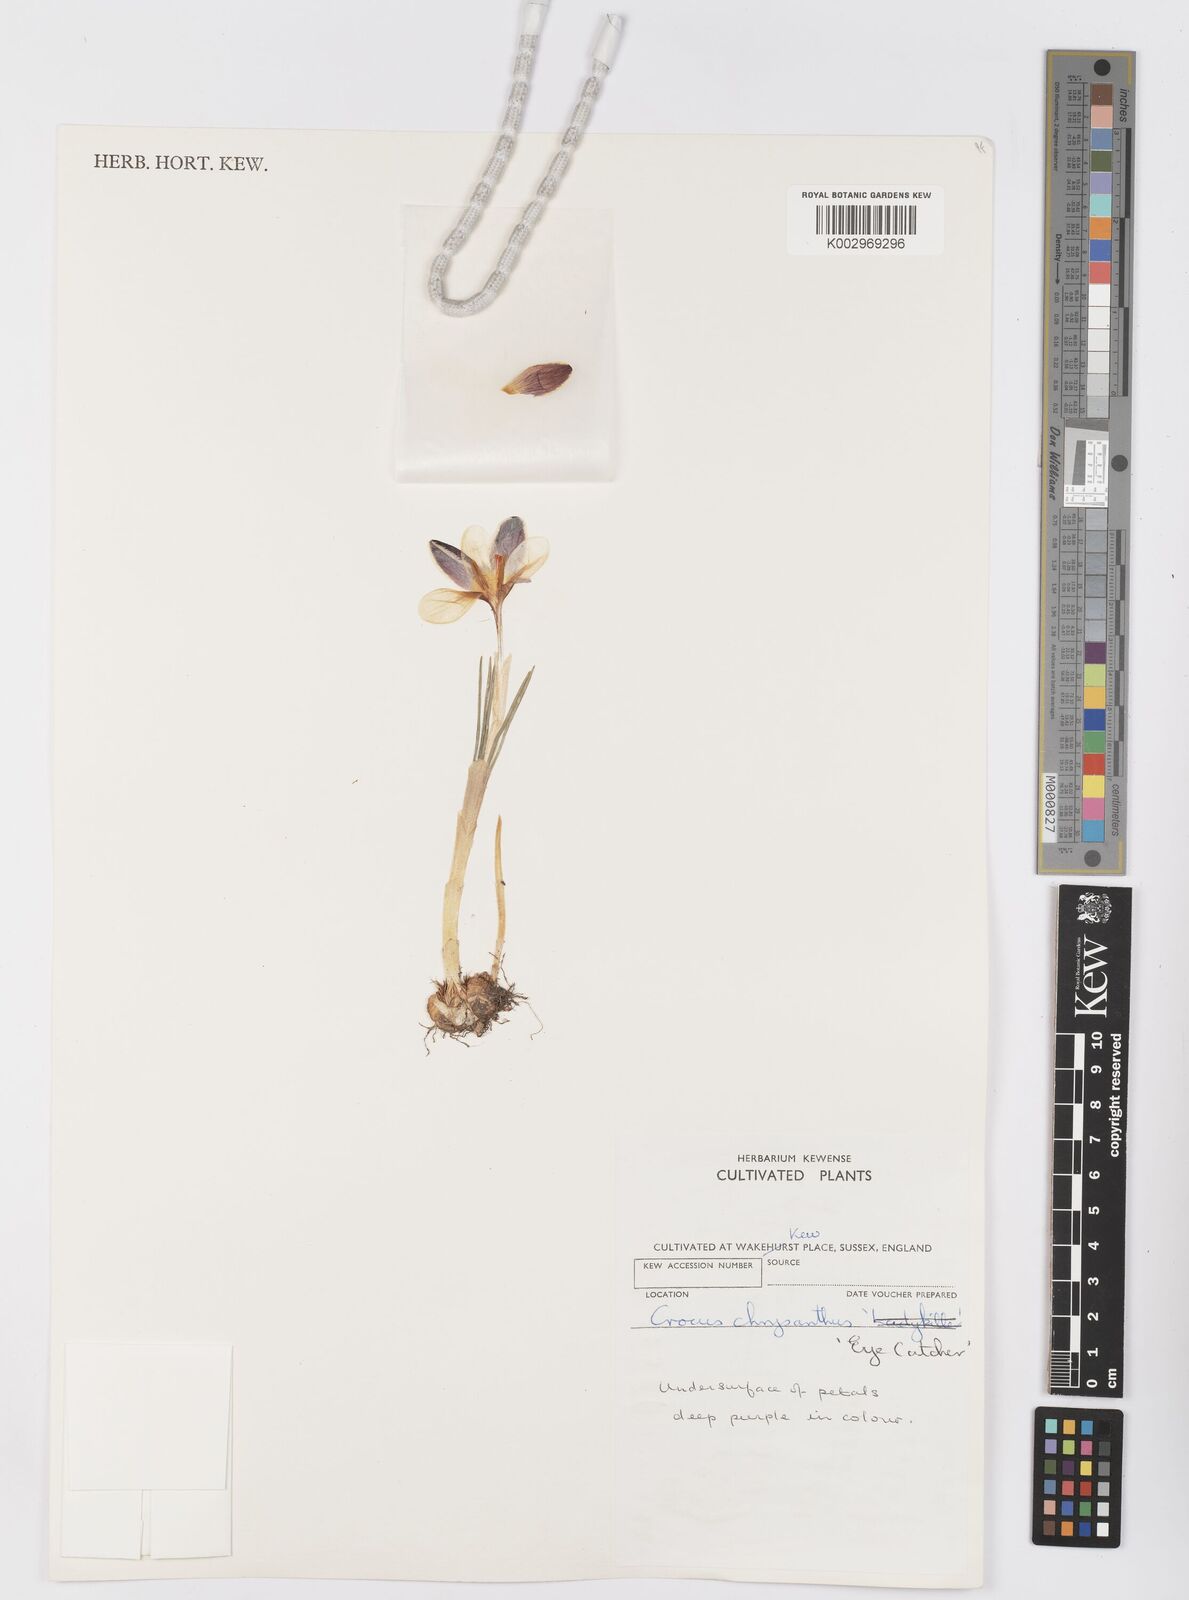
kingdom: Plantae
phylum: Tracheophyta
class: Liliopsida
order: Asparagales
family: Iridaceae
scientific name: Iridaceae
